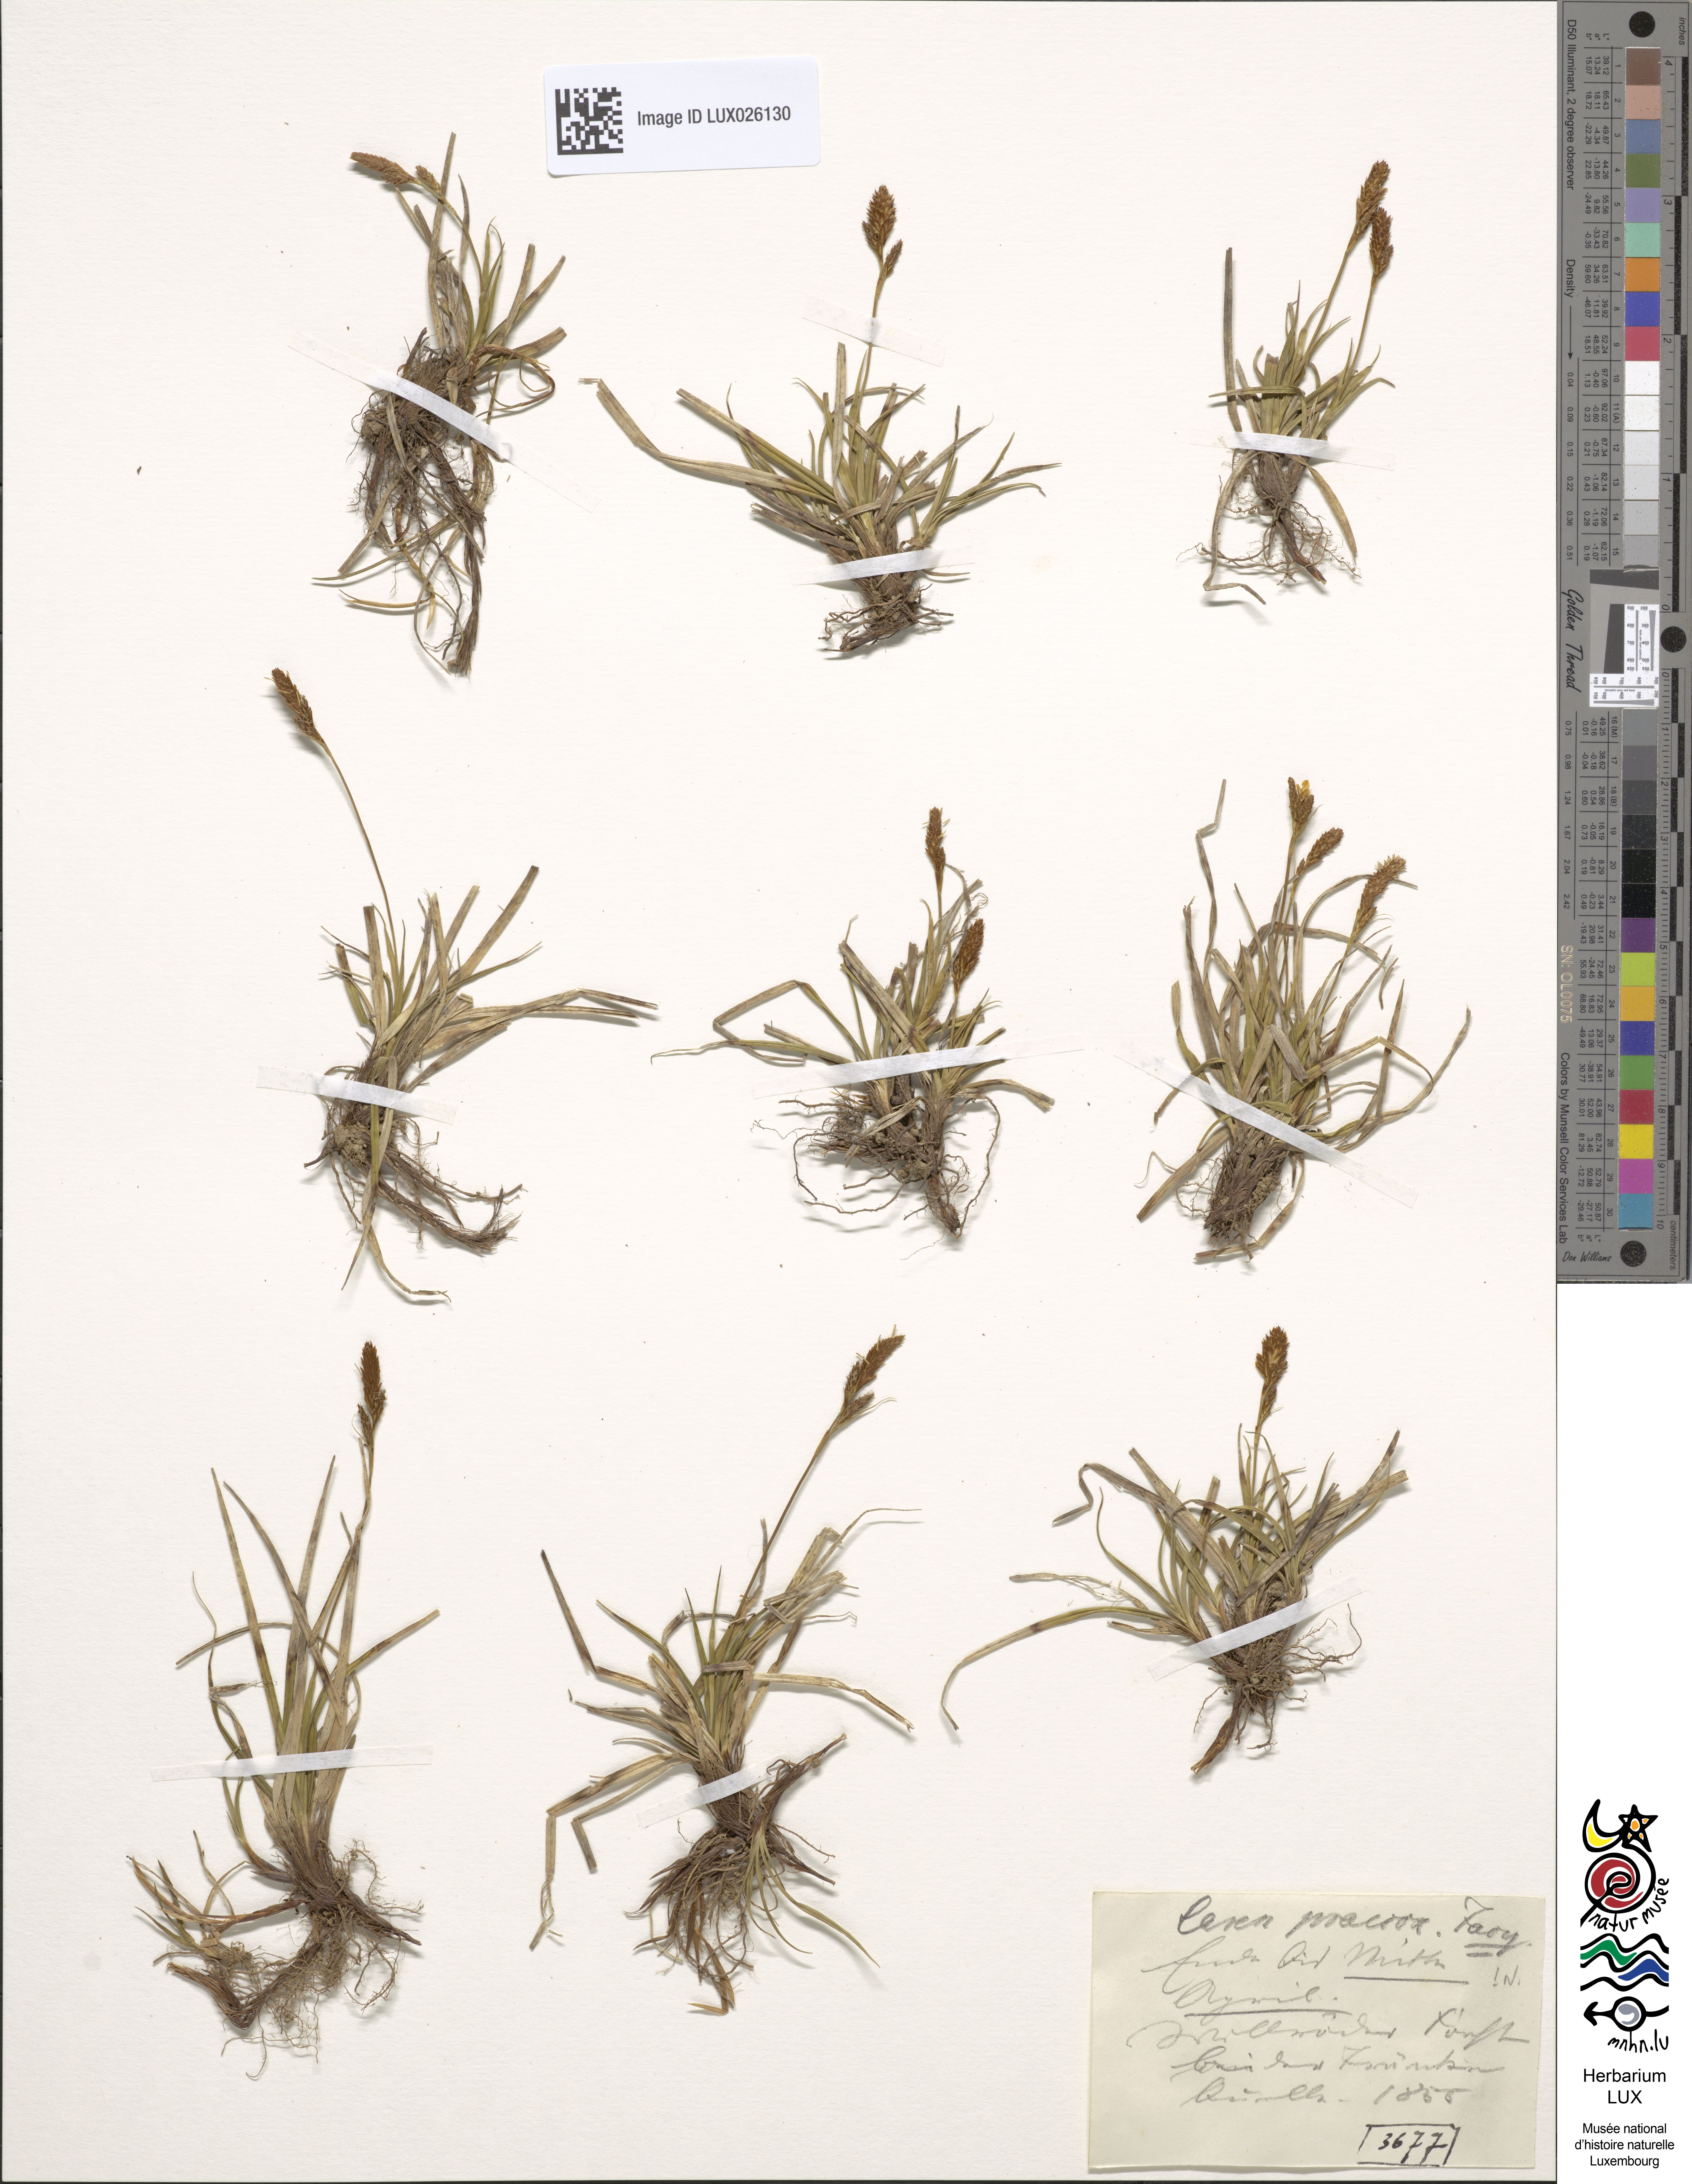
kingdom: Plantae
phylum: Tracheophyta
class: Liliopsida
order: Poales
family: Cyperaceae
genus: Carex
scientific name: Carex caryophyllea
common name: Spring sedge
